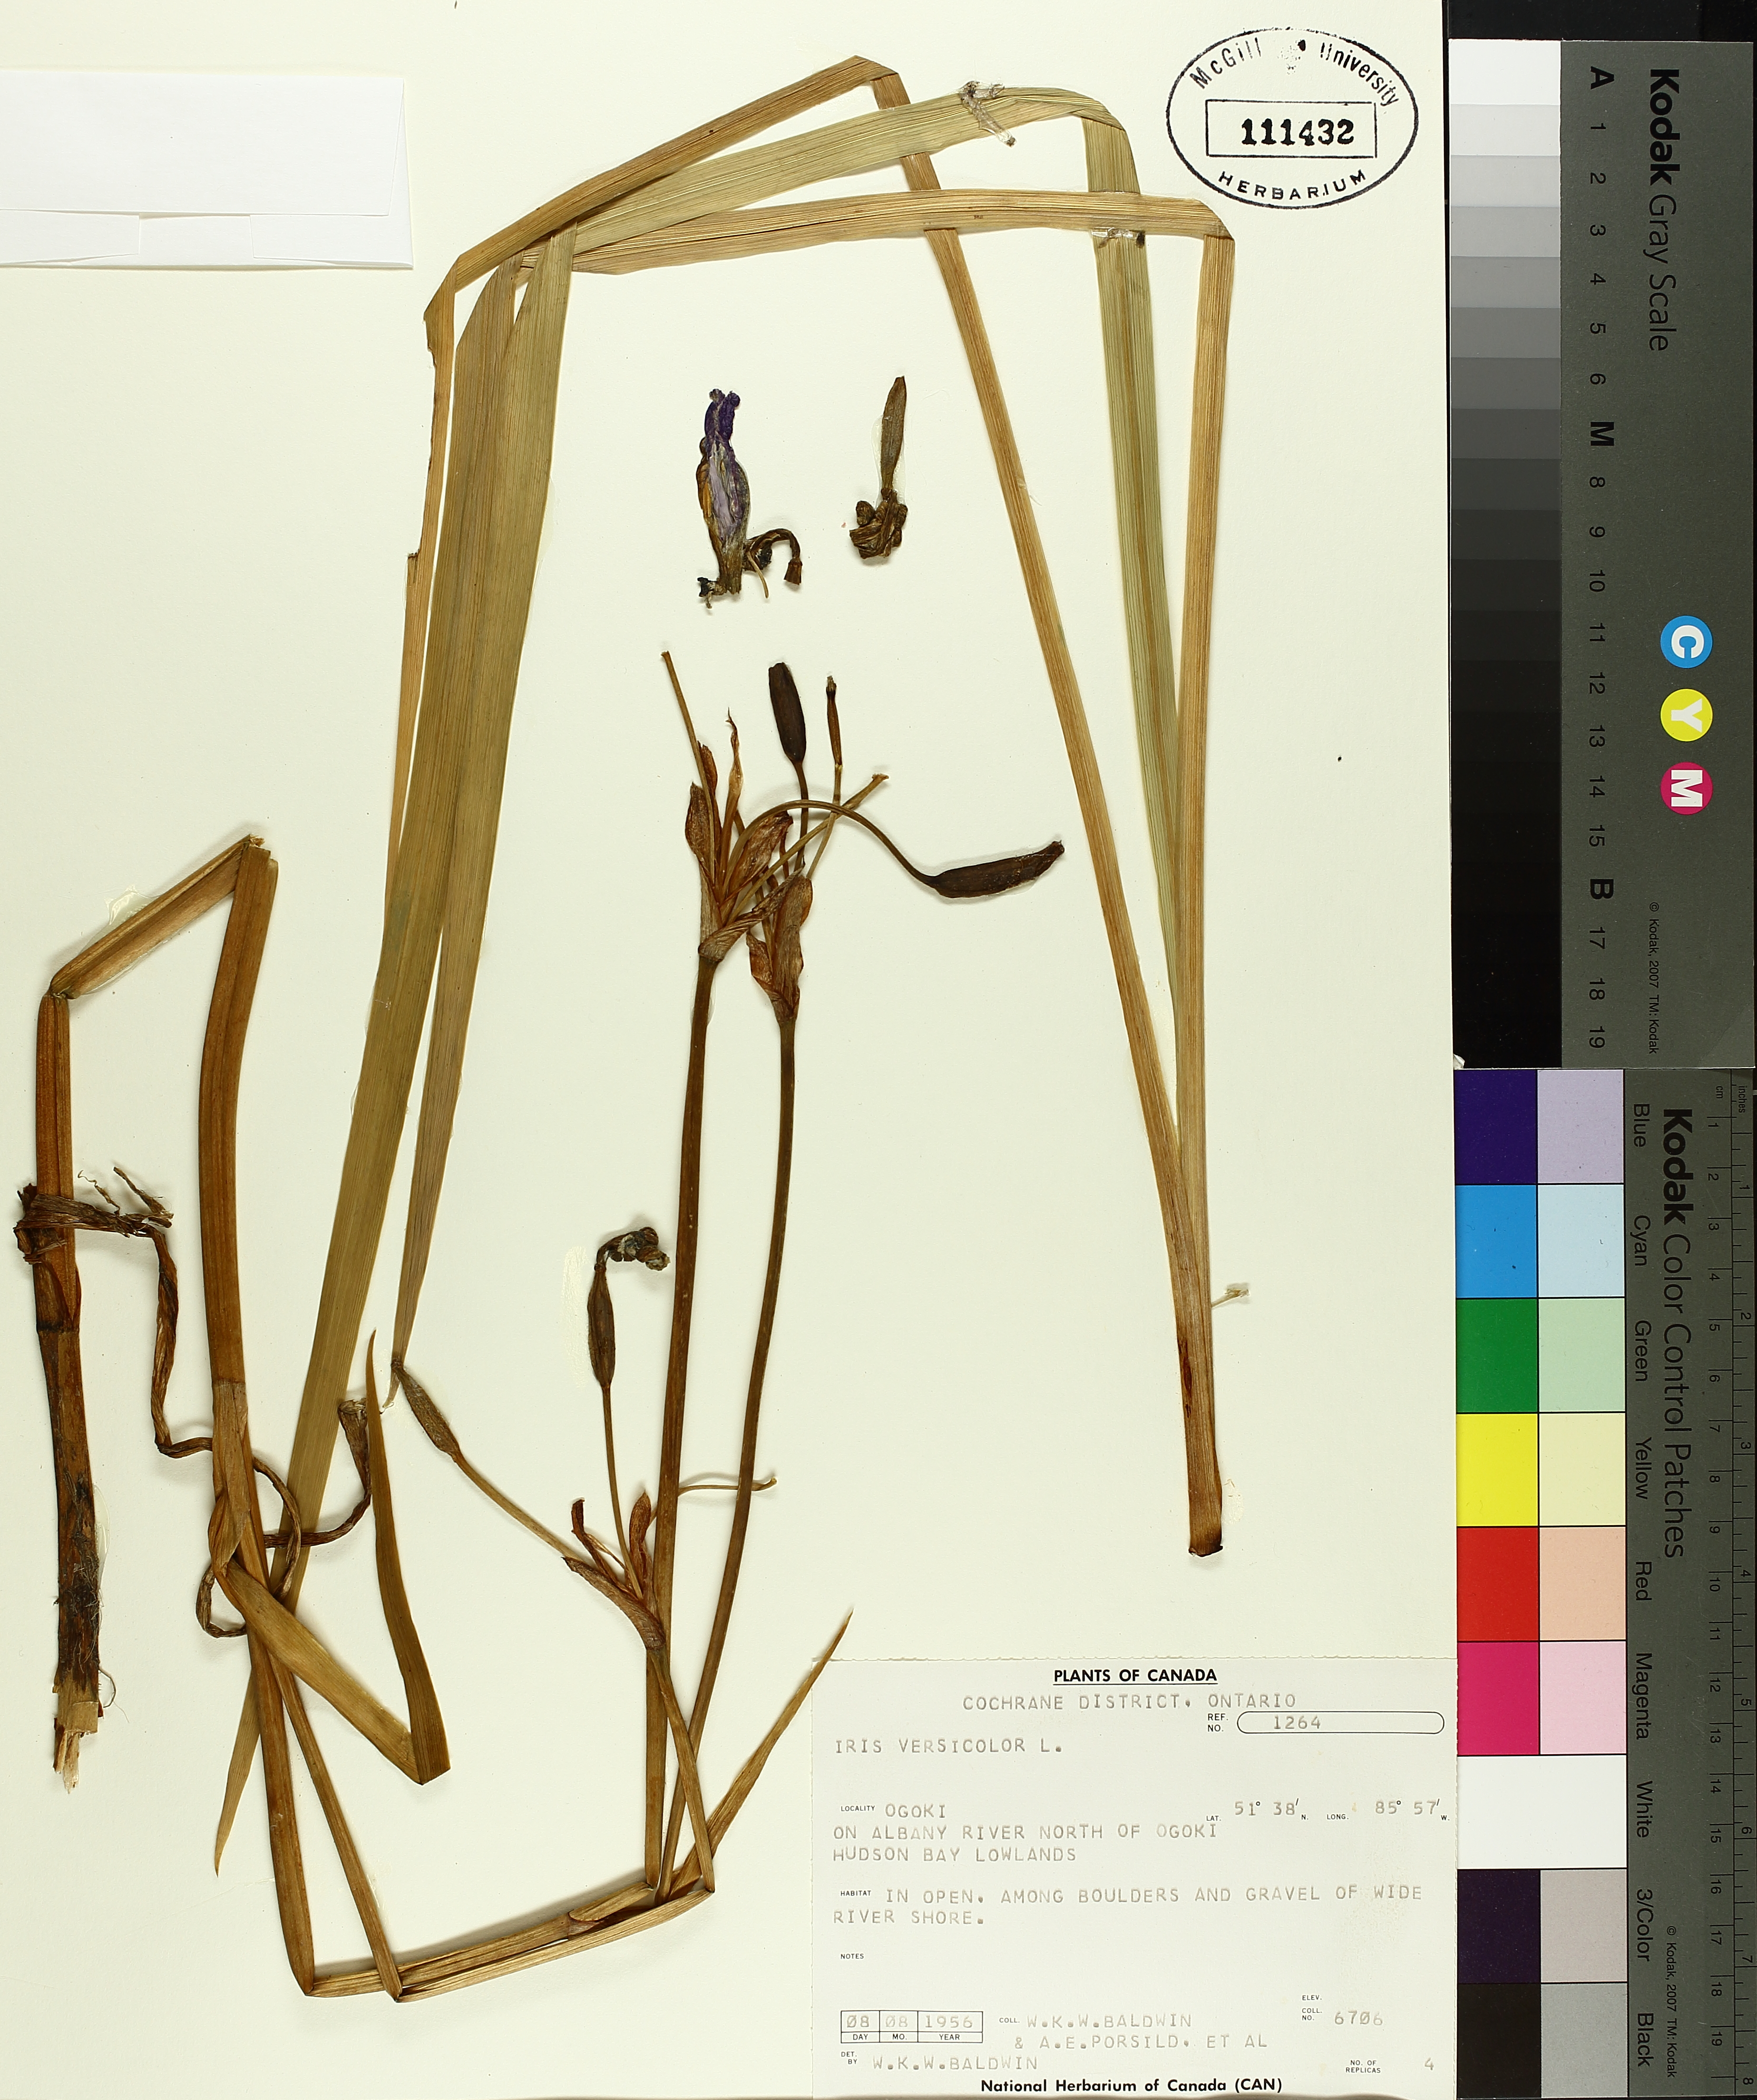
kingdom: Plantae
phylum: Tracheophyta
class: Liliopsida
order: Asparagales
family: Iridaceae
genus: Iris
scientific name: Iris versicolor
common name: Purple iris
